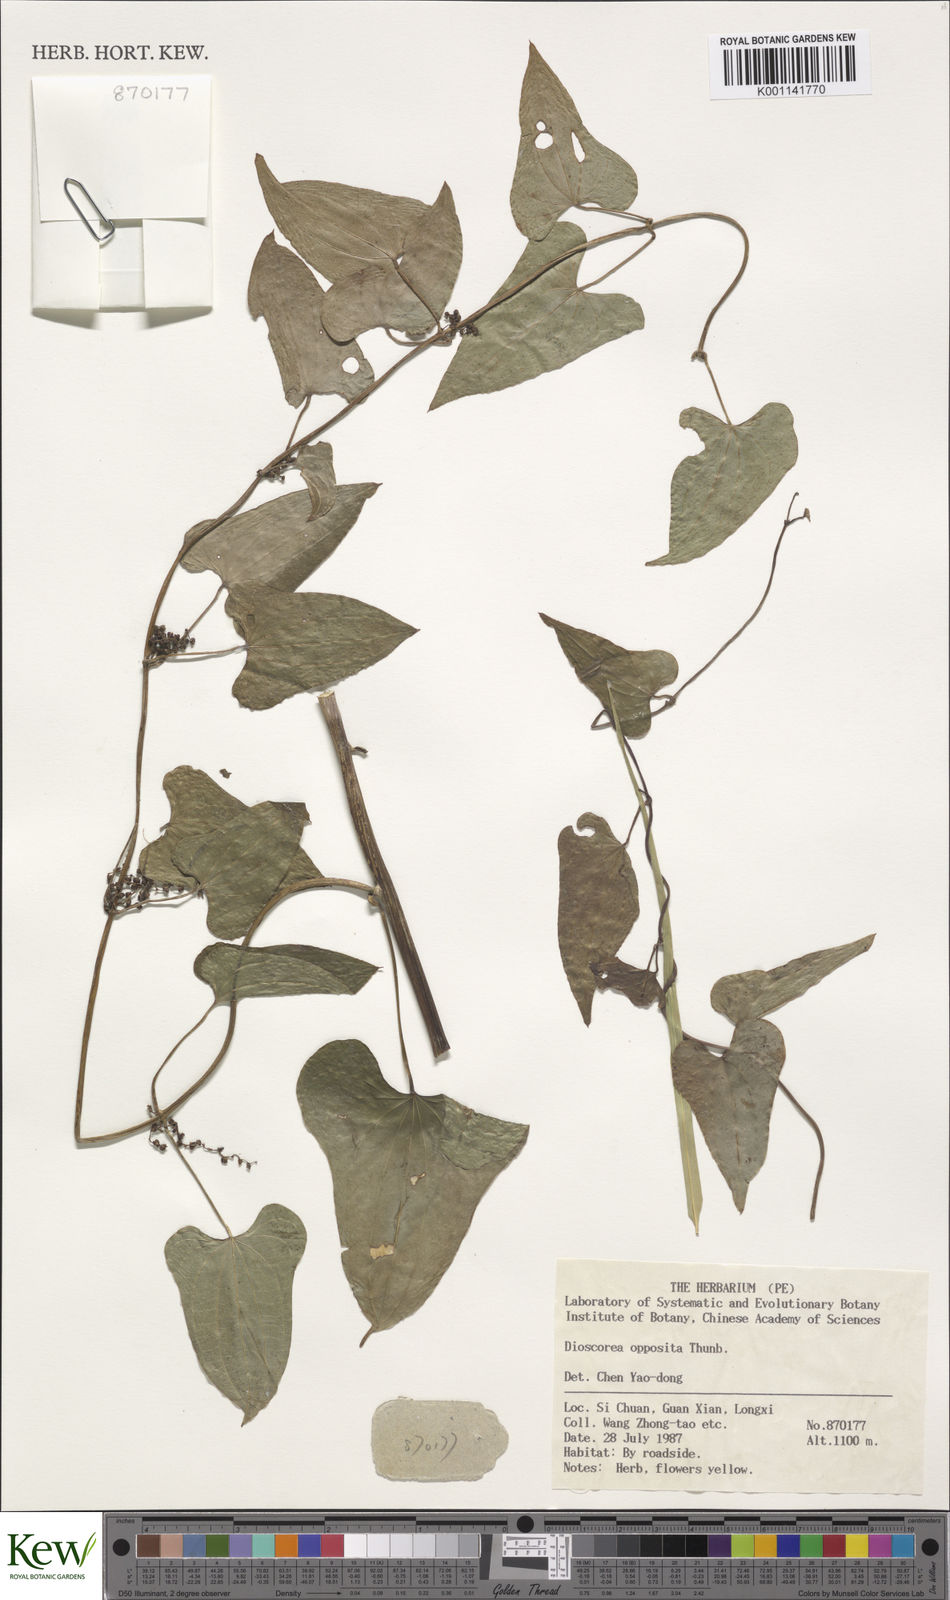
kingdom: Plantae
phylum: Tracheophyta
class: Liliopsida
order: Dioscoreales
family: Dioscoreaceae
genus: Dioscorea
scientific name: Dioscorea oppositifolia
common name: Chinese yam
